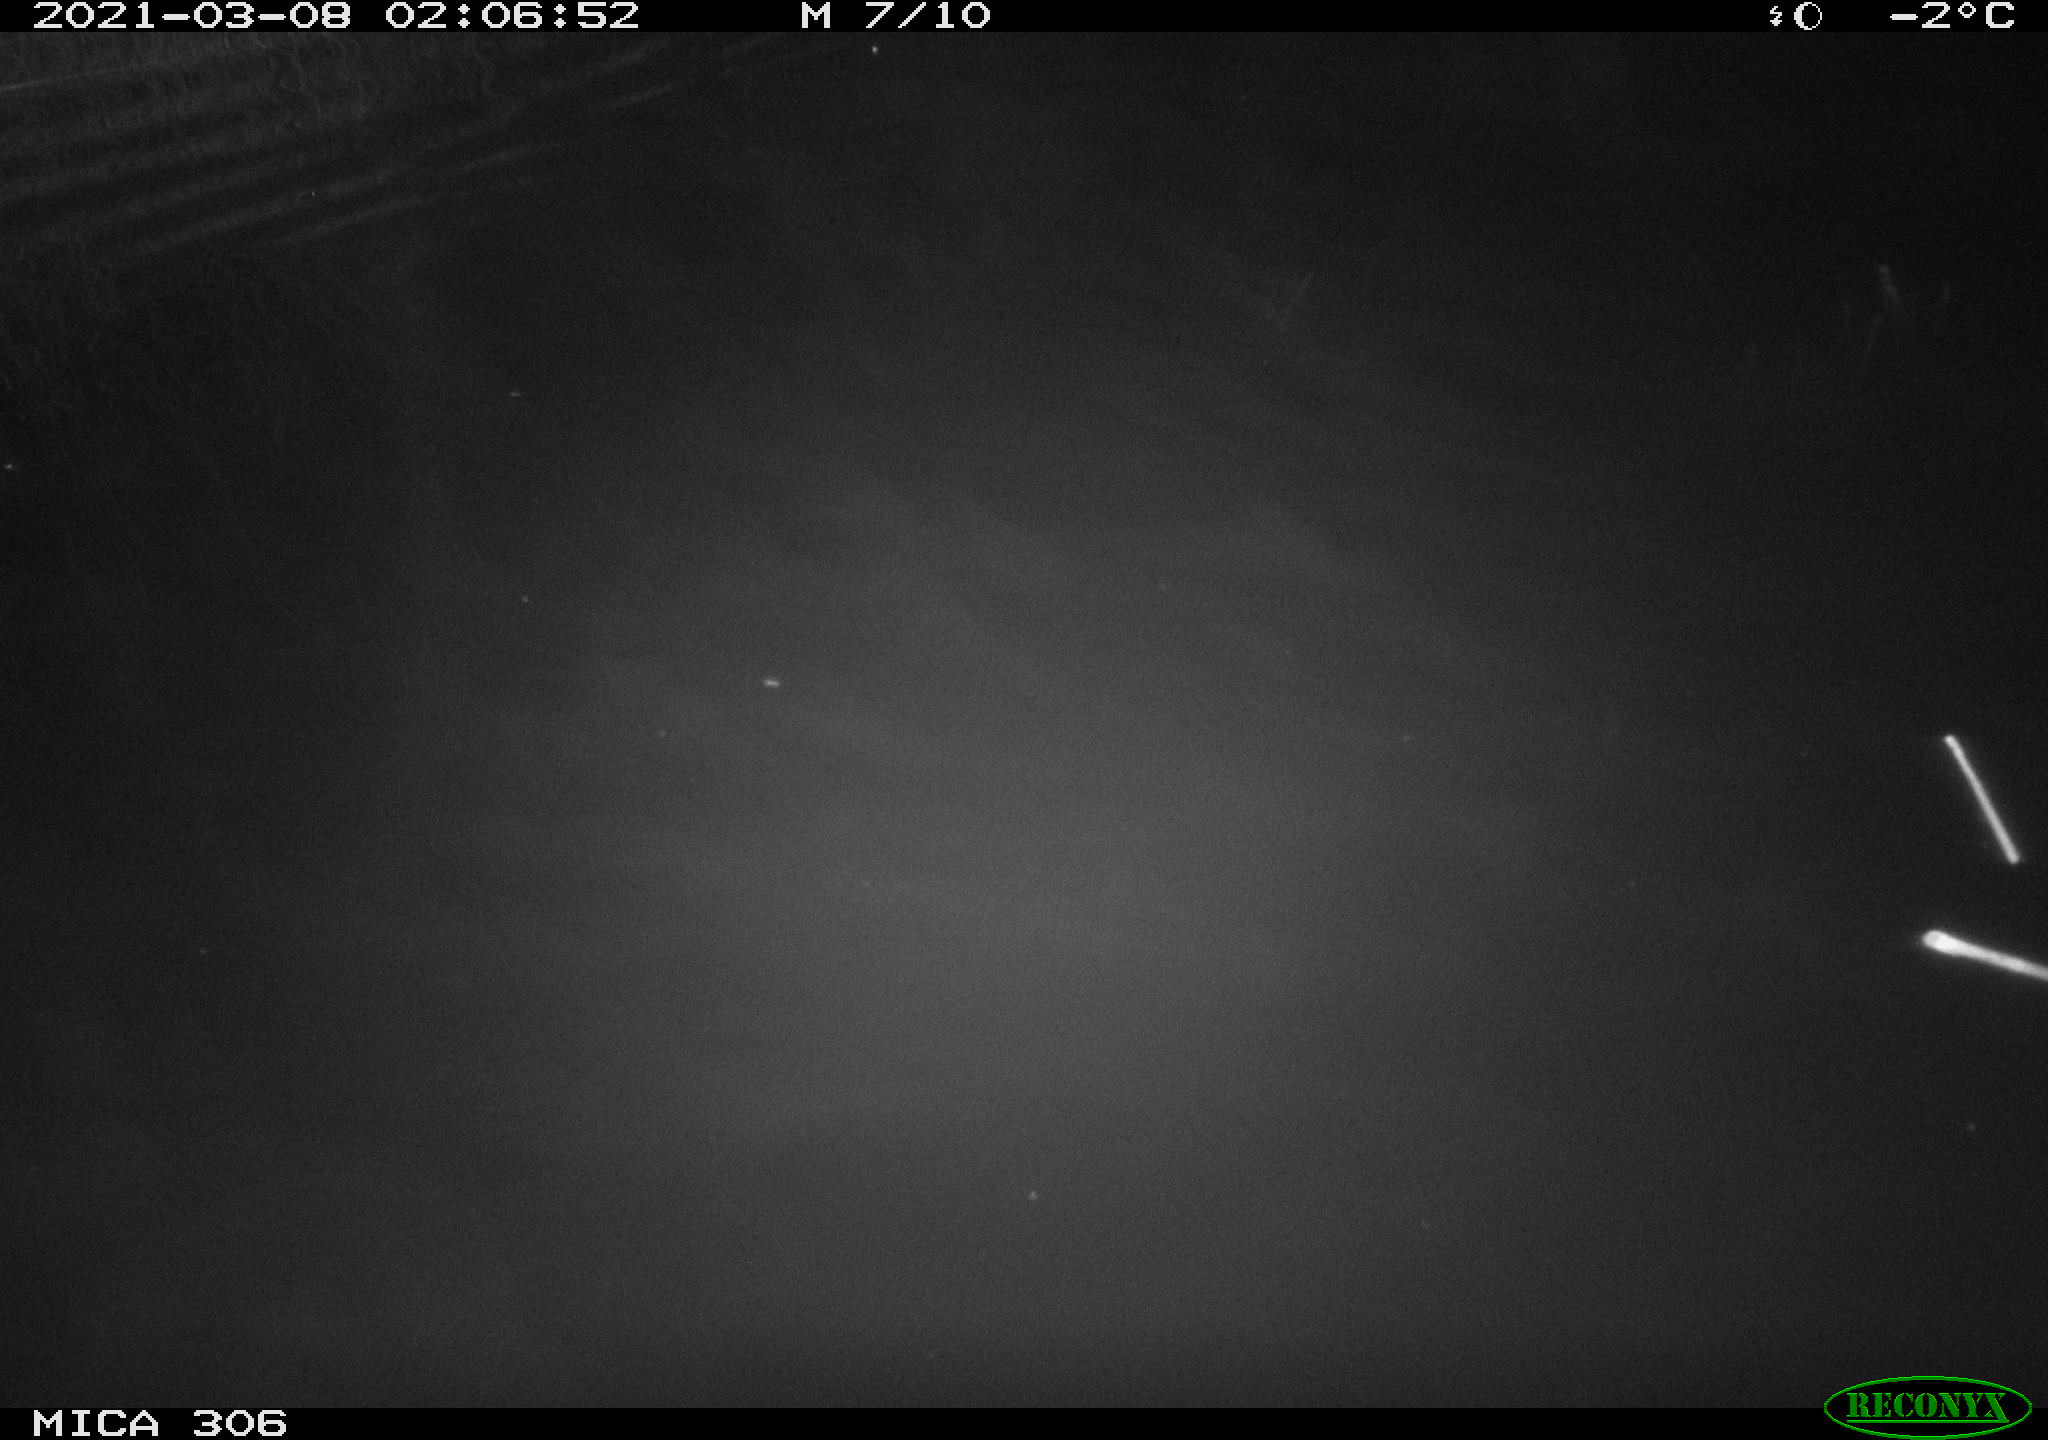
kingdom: Animalia
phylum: Chordata
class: Mammalia
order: Rodentia
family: Cricetidae
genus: Ondatra
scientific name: Ondatra zibethicus
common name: Muskrat
